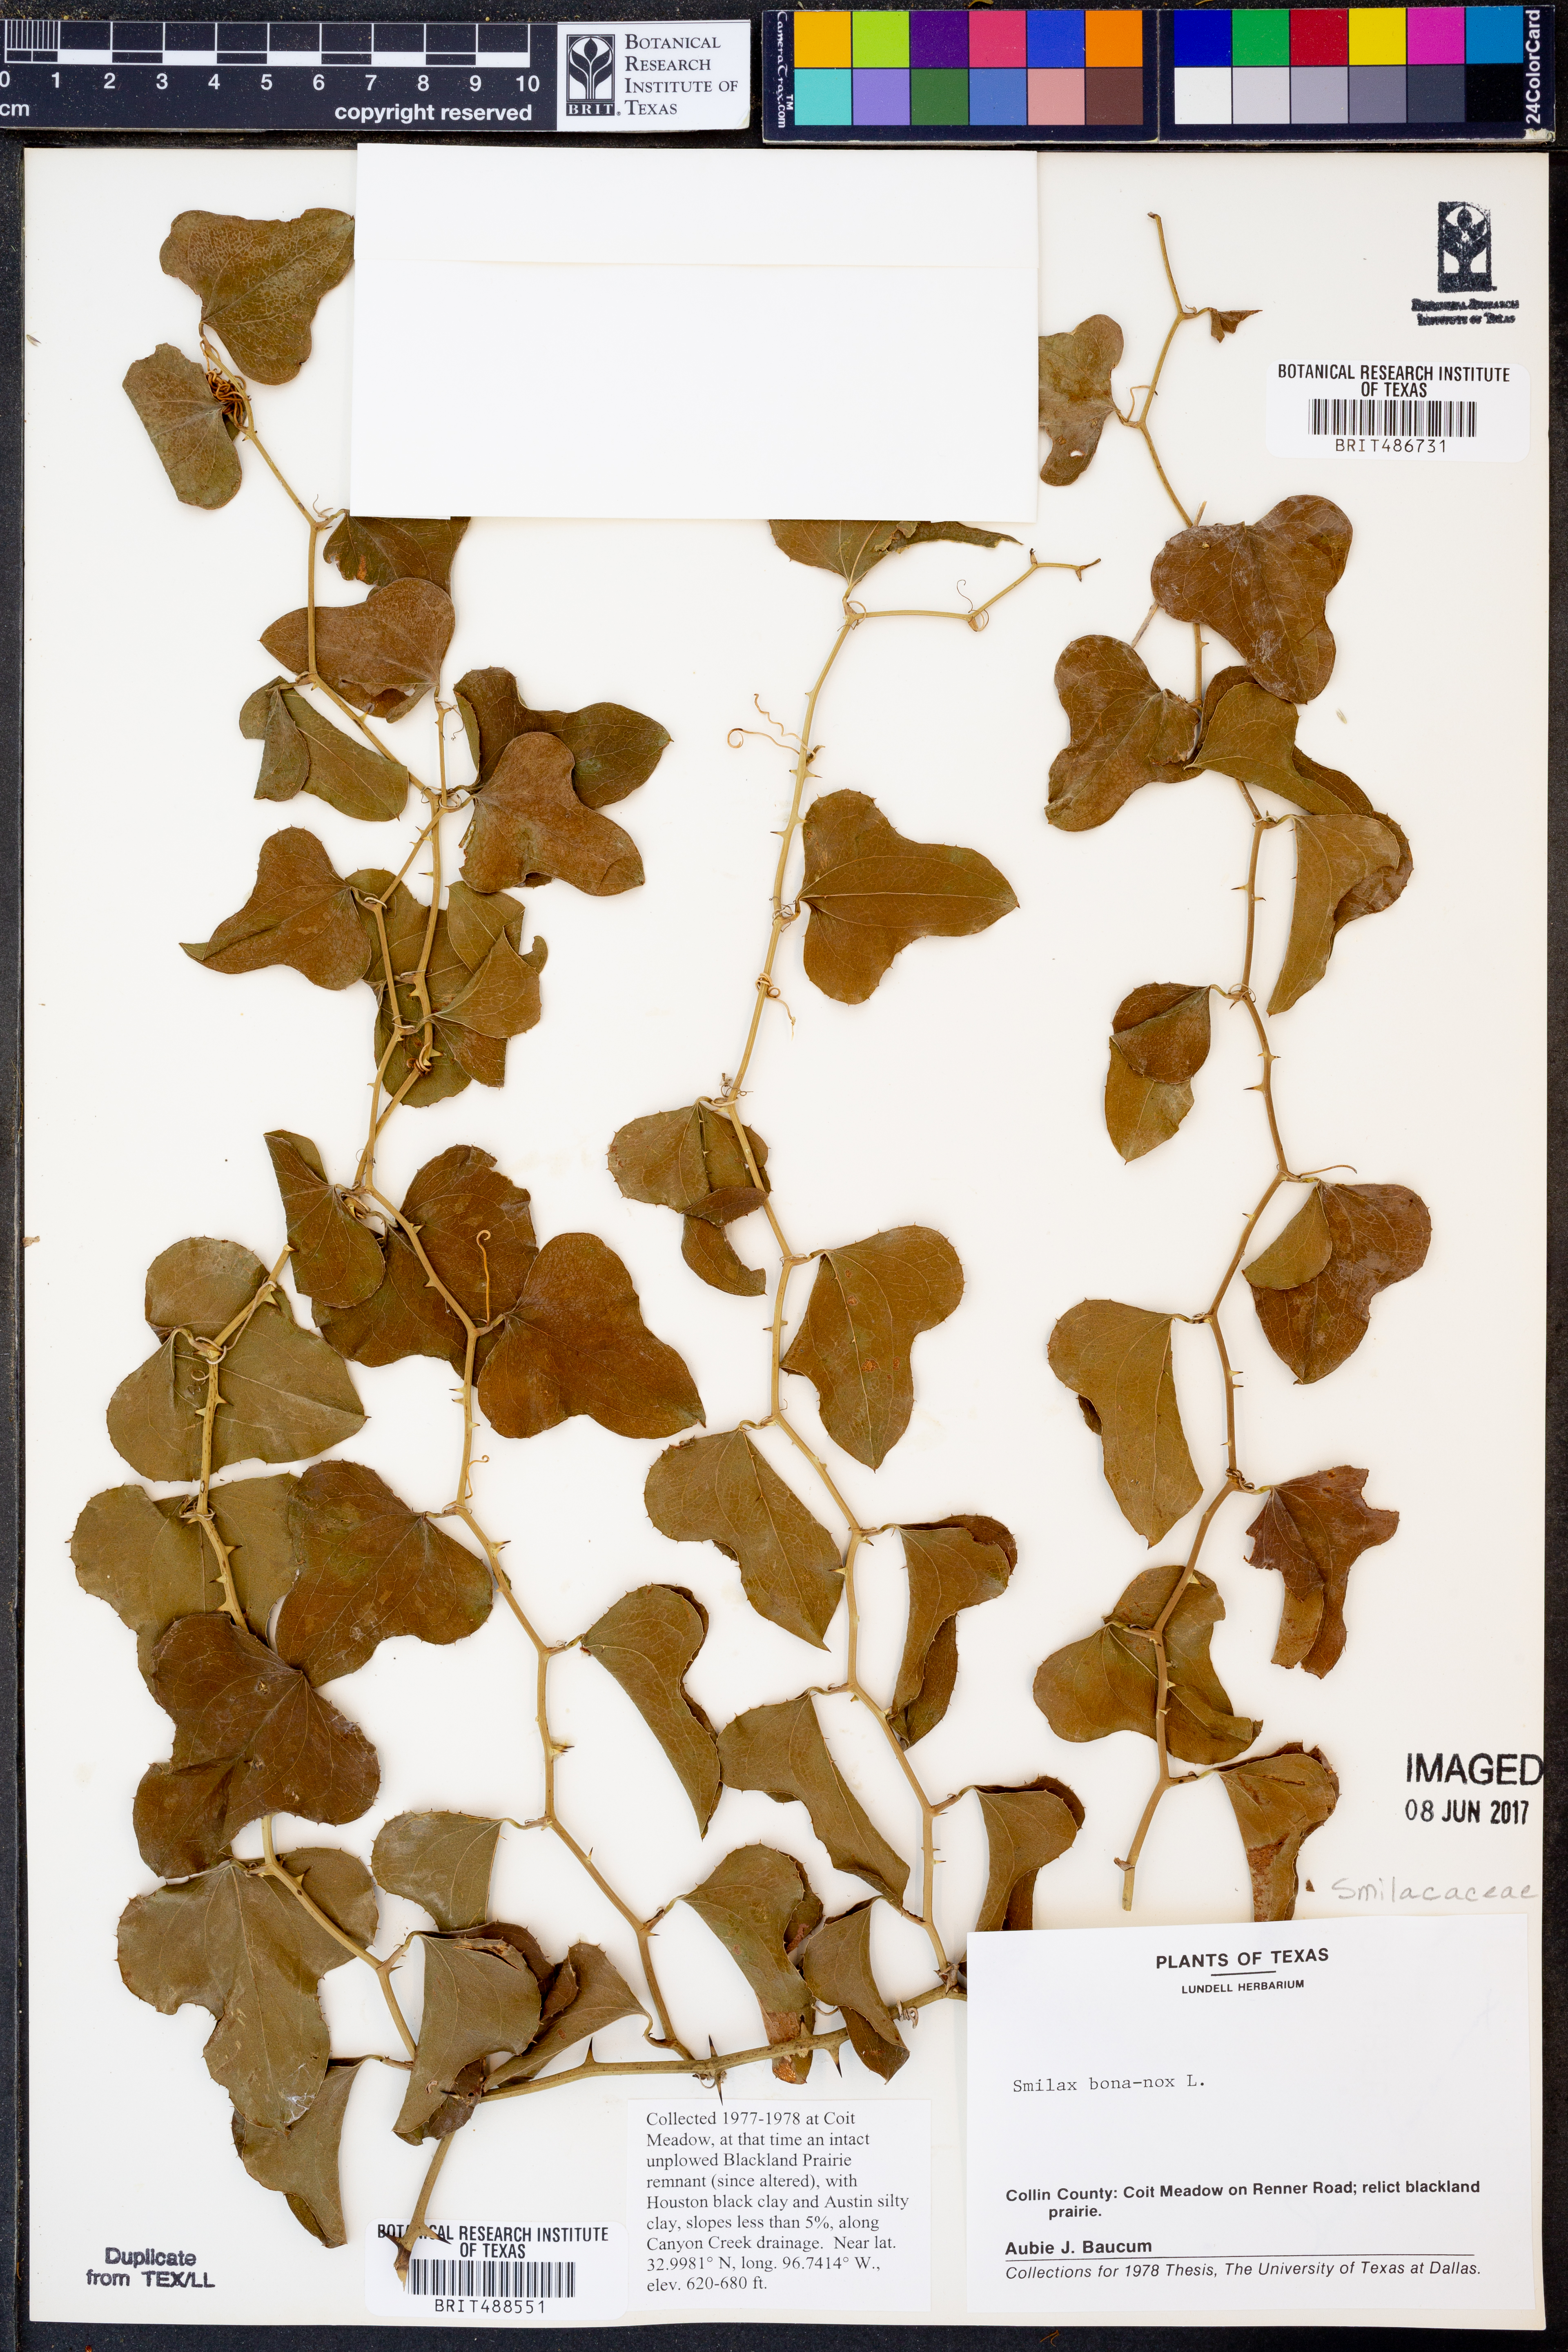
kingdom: Plantae
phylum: Tracheophyta
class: Liliopsida
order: Liliales
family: Smilacaceae
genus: Smilax
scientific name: Smilax bona-nox
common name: Catbrier
